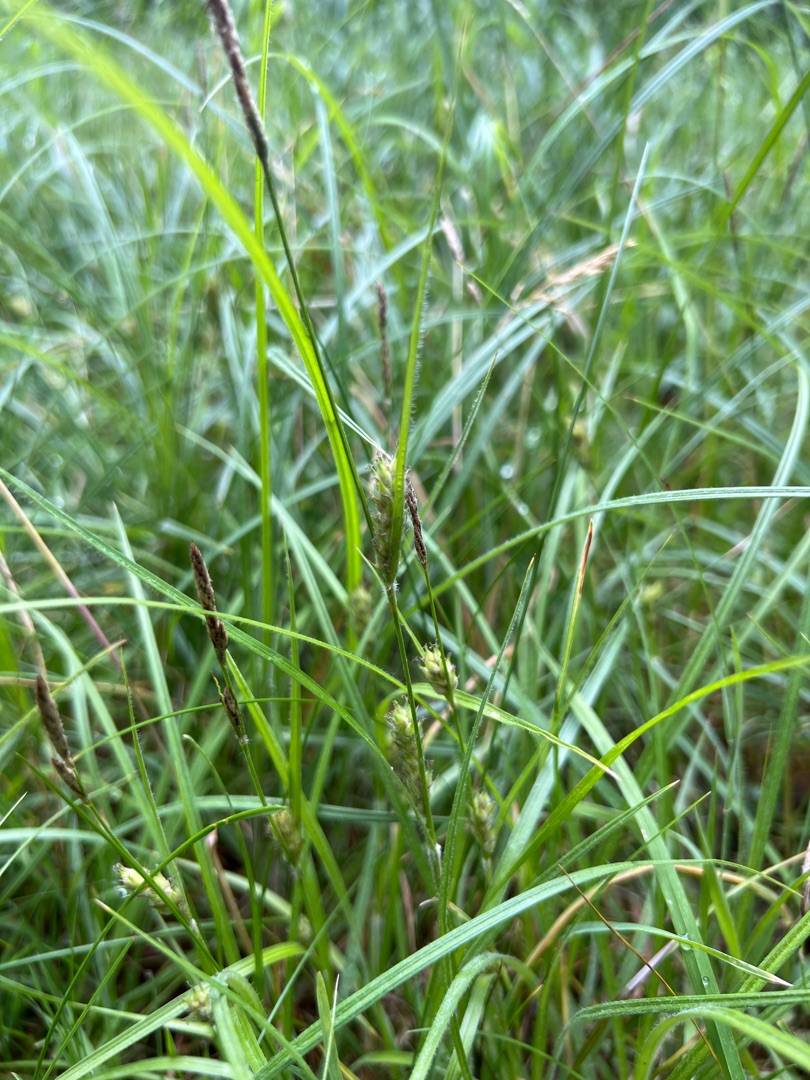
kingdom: Plantae
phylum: Tracheophyta
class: Liliopsida
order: Poales
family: Cyperaceae
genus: Carex
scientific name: Carex hirta
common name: Håret star
